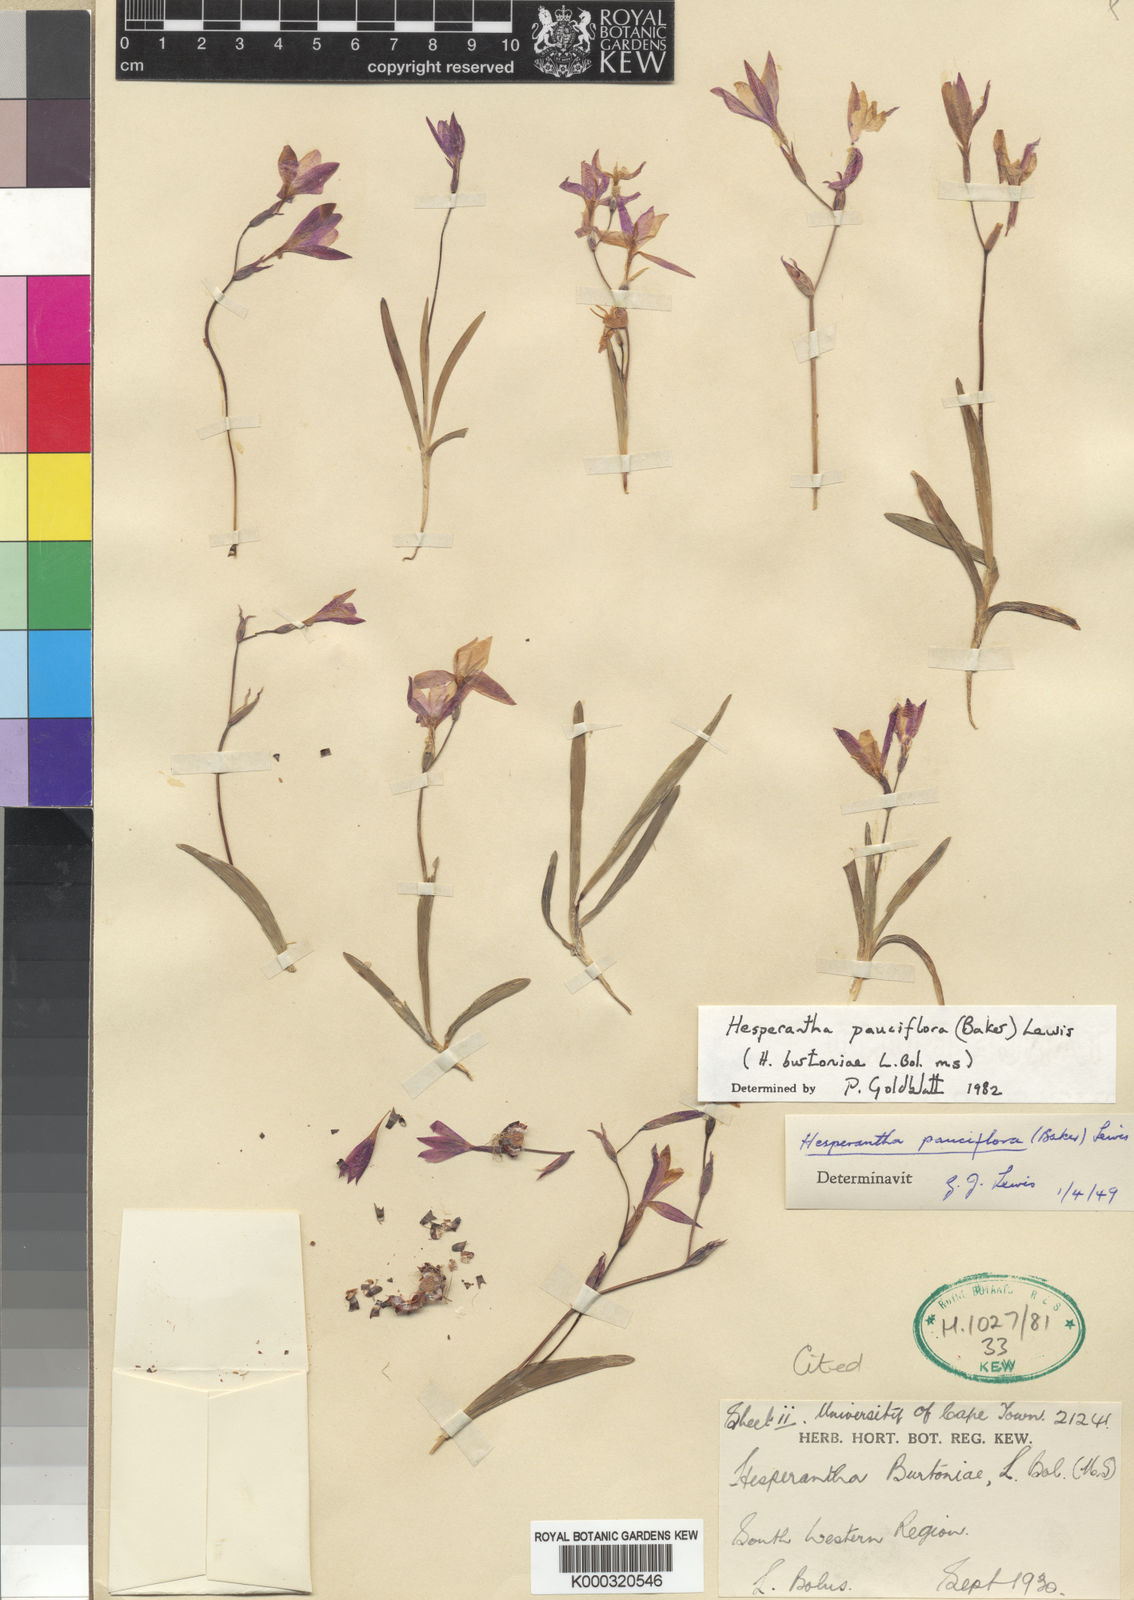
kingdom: Plantae
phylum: Tracheophyta
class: Liliopsida
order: Asparagales
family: Iridaceae
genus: Hesperantha
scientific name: Hesperantha pauciflora
